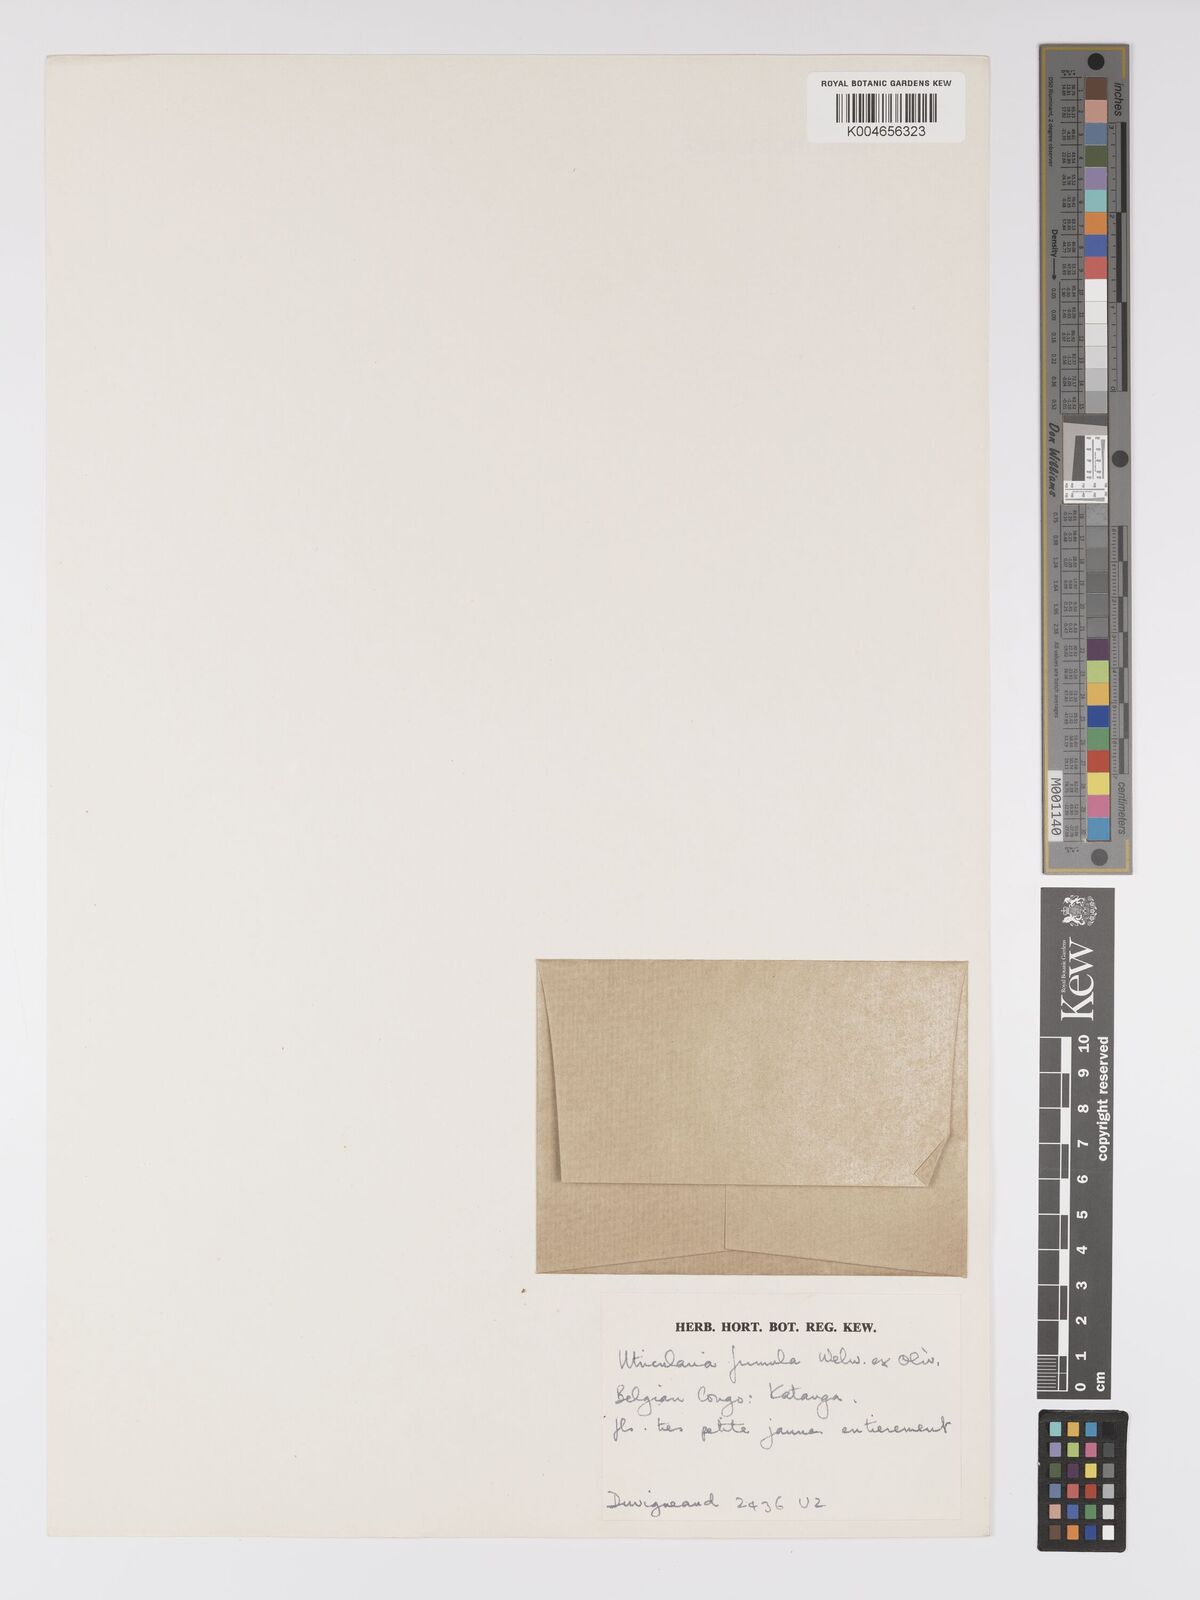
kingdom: Plantae
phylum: Tracheophyta
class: Magnoliopsida
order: Lamiales
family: Lentibulariaceae
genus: Utricularia
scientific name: Utricularia firmula
